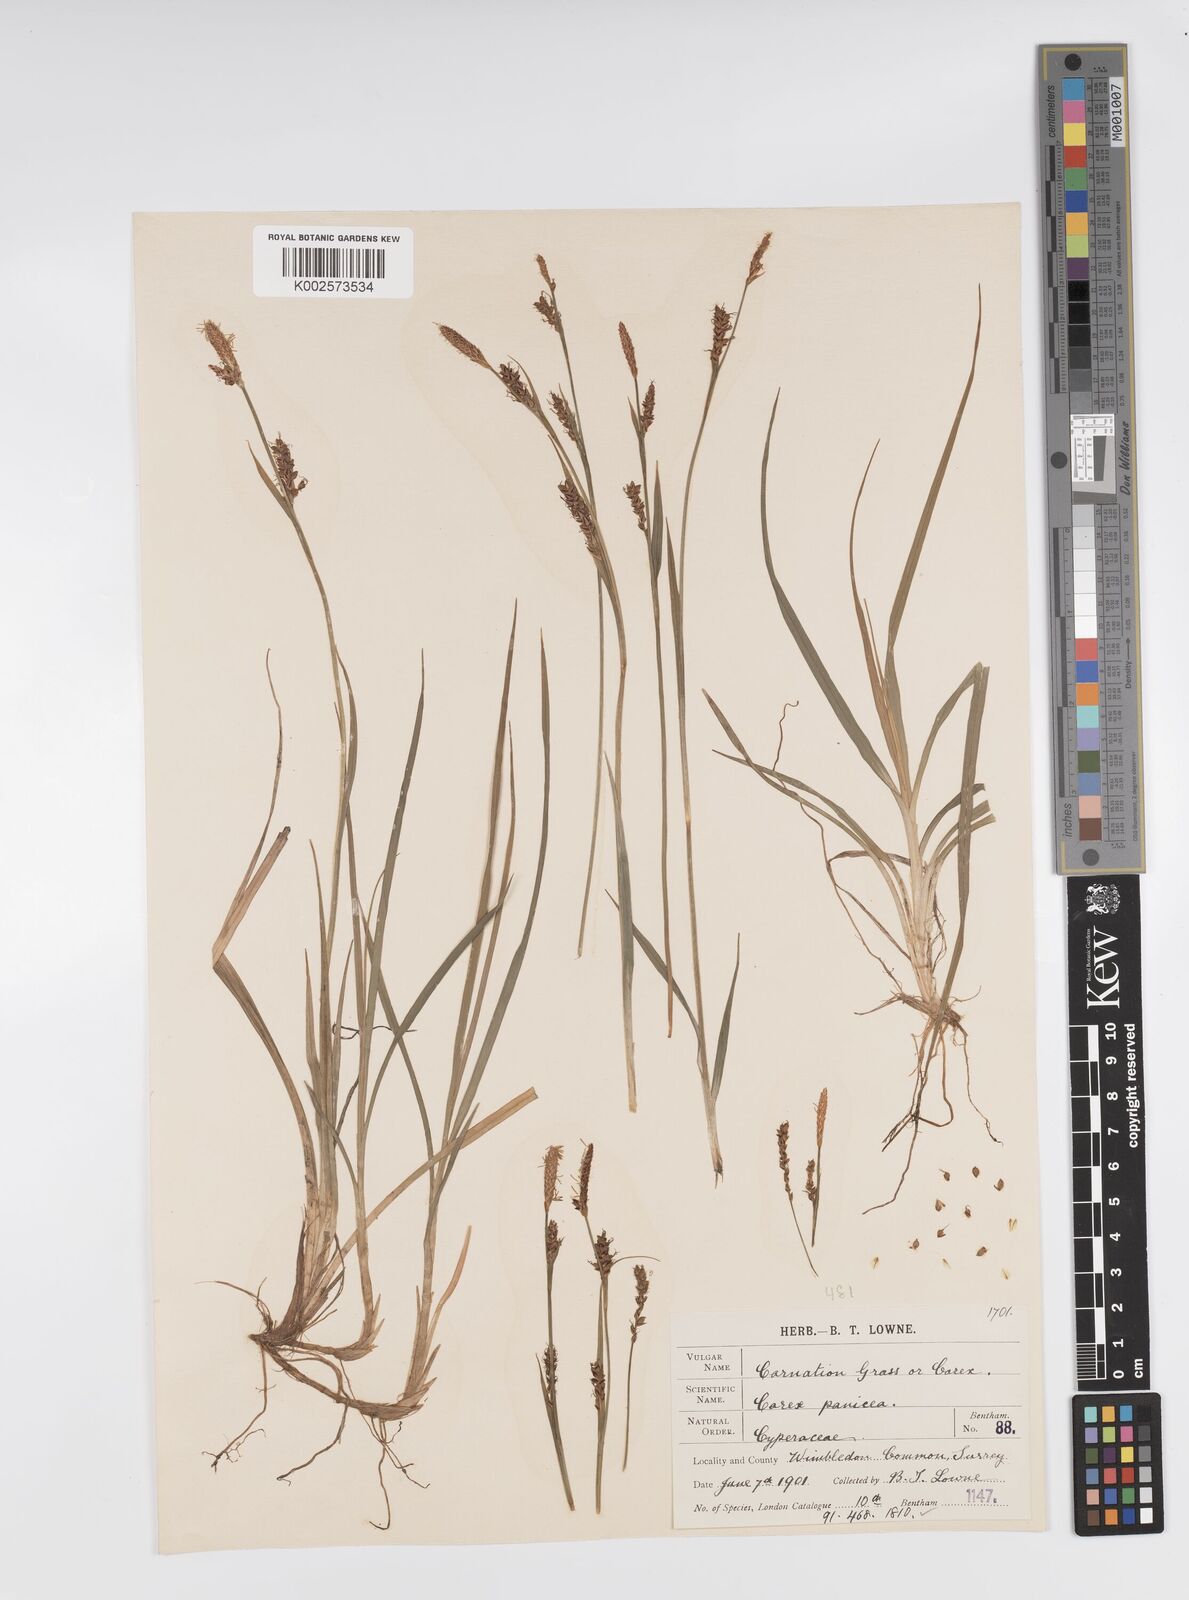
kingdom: Plantae
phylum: Tracheophyta
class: Liliopsida
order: Poales
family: Cyperaceae
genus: Carex
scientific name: Carex panicea
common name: Carnation sedge
